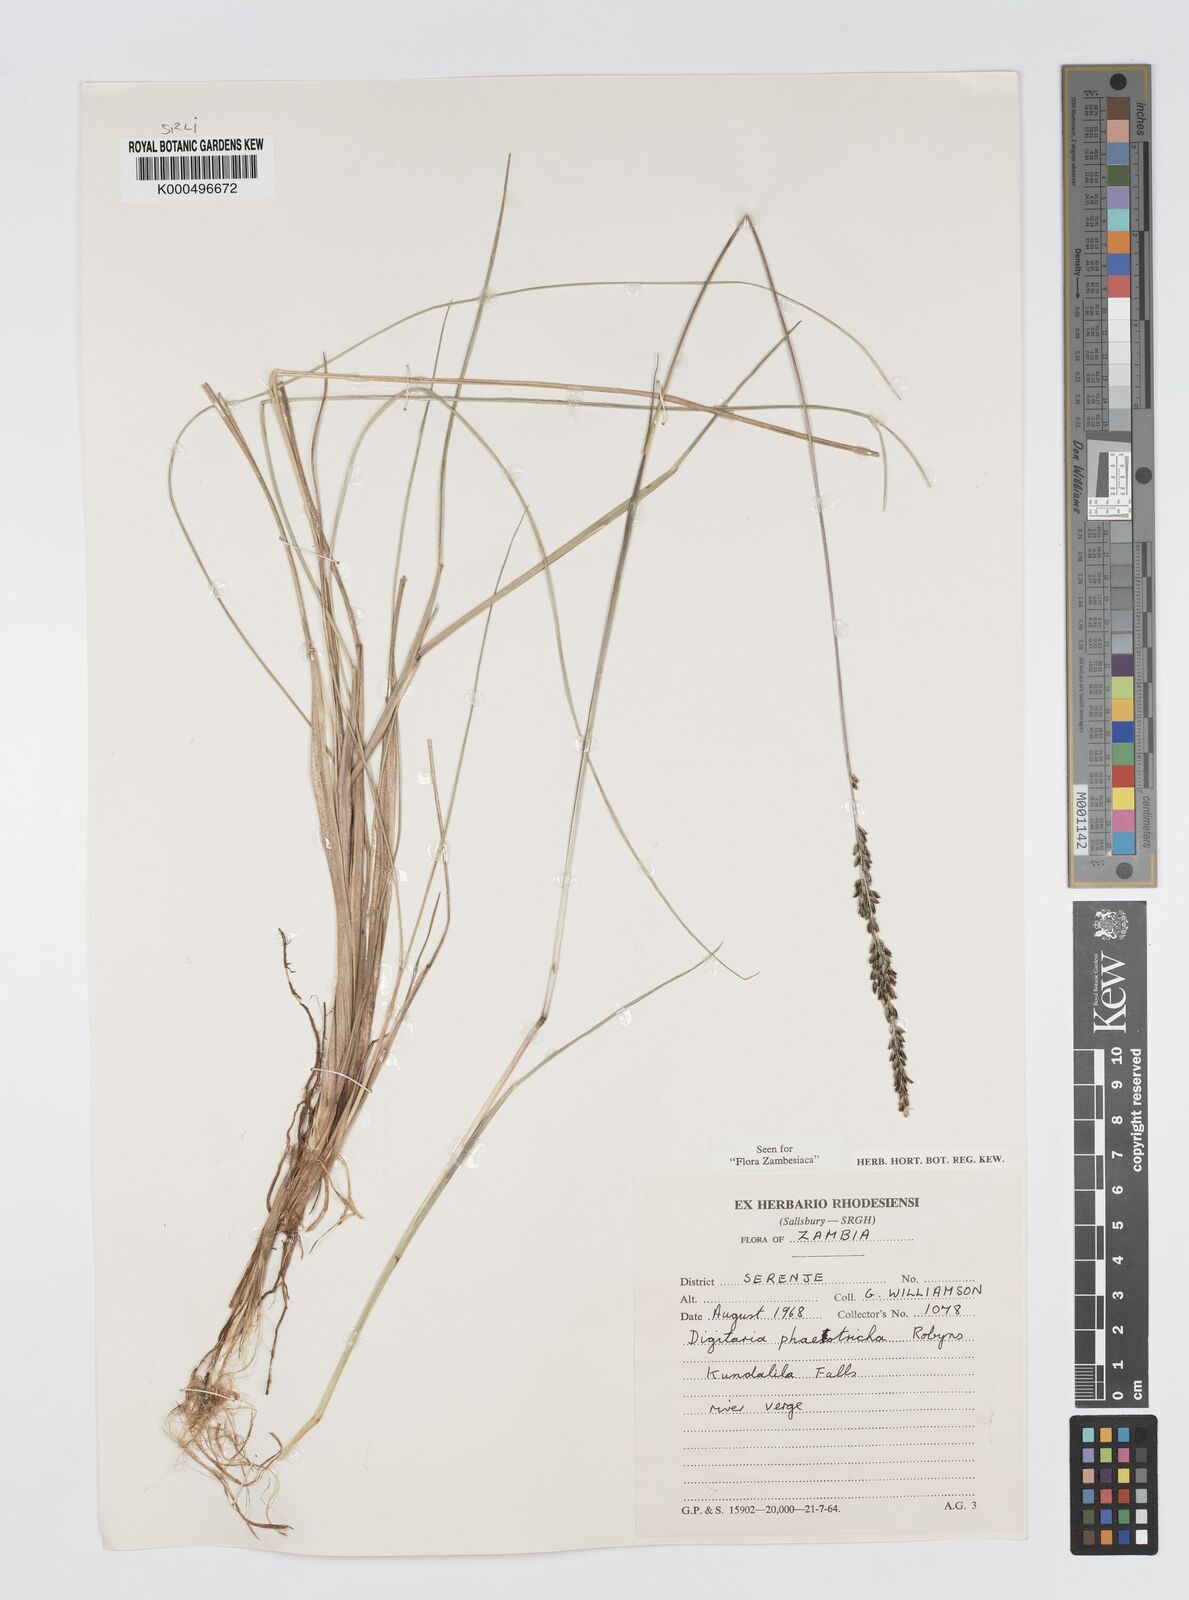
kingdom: Plantae
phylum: Tracheophyta
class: Liliopsida
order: Poales
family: Poaceae
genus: Digitaria
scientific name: Digitaria phaeotricha
